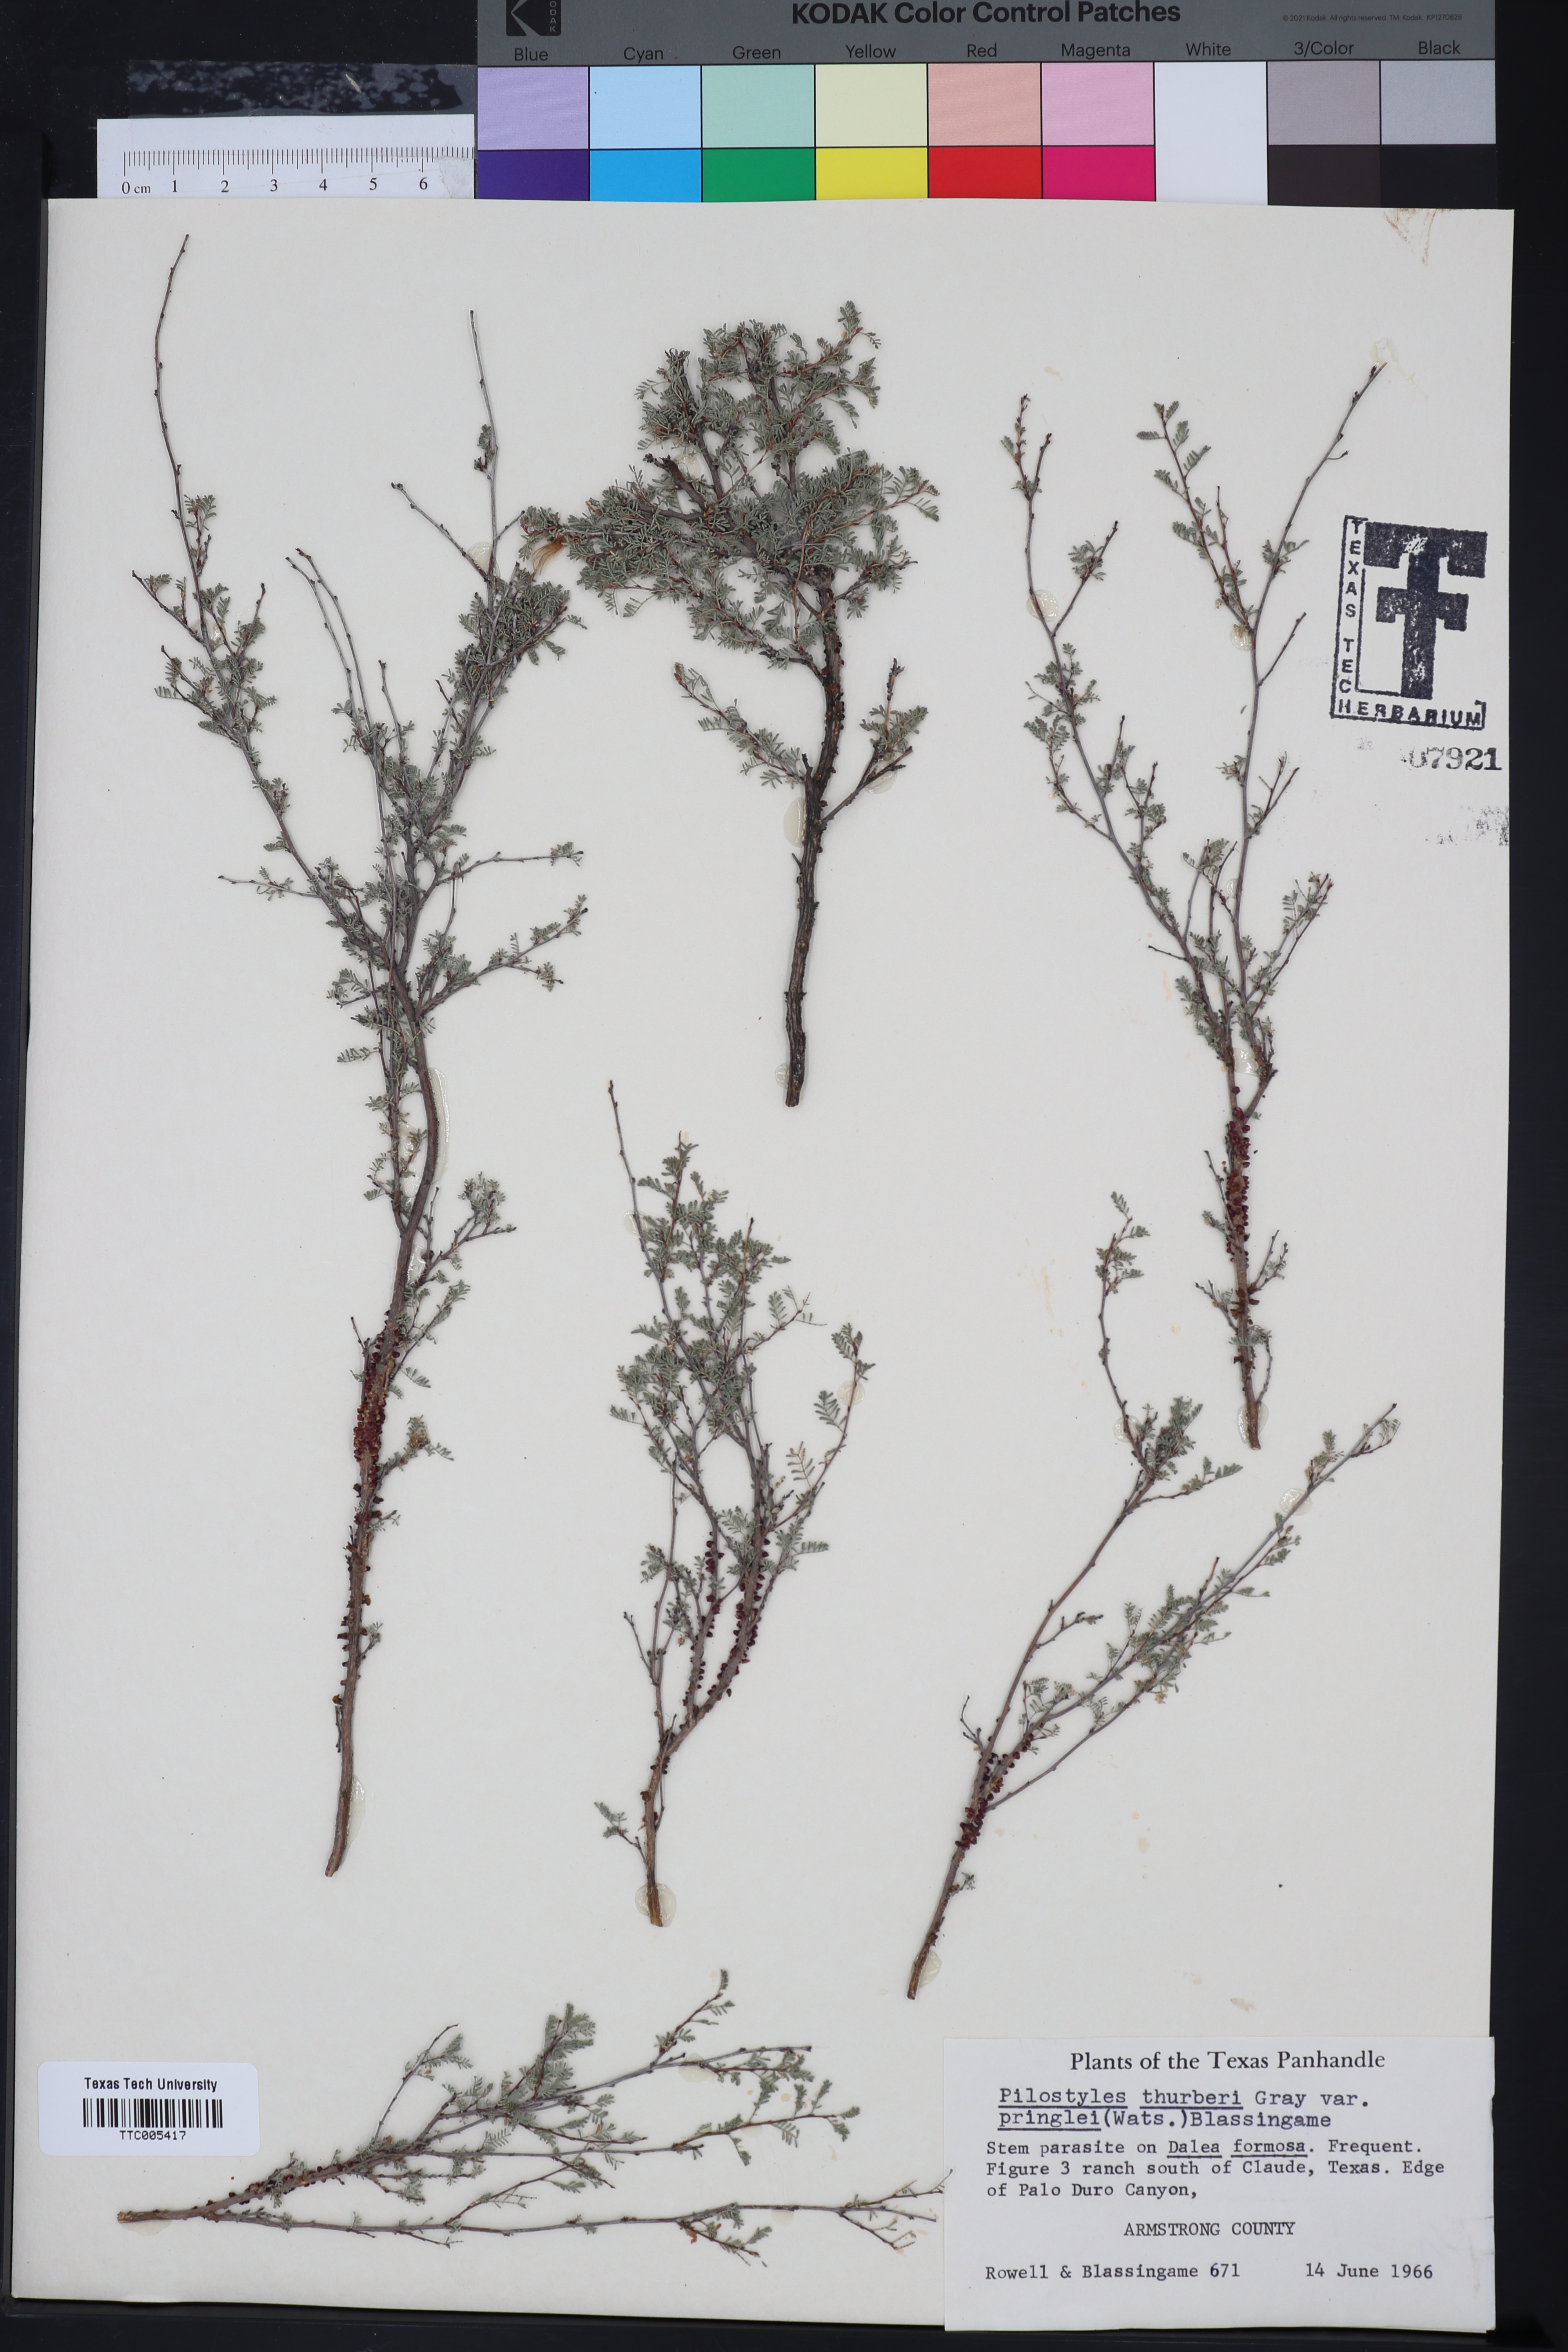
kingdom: Plantae
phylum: Tracheophyta
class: Magnoliopsida
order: Cucurbitales
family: Apodanthaceae
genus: Pilostyles
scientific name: Pilostyles thurberi
